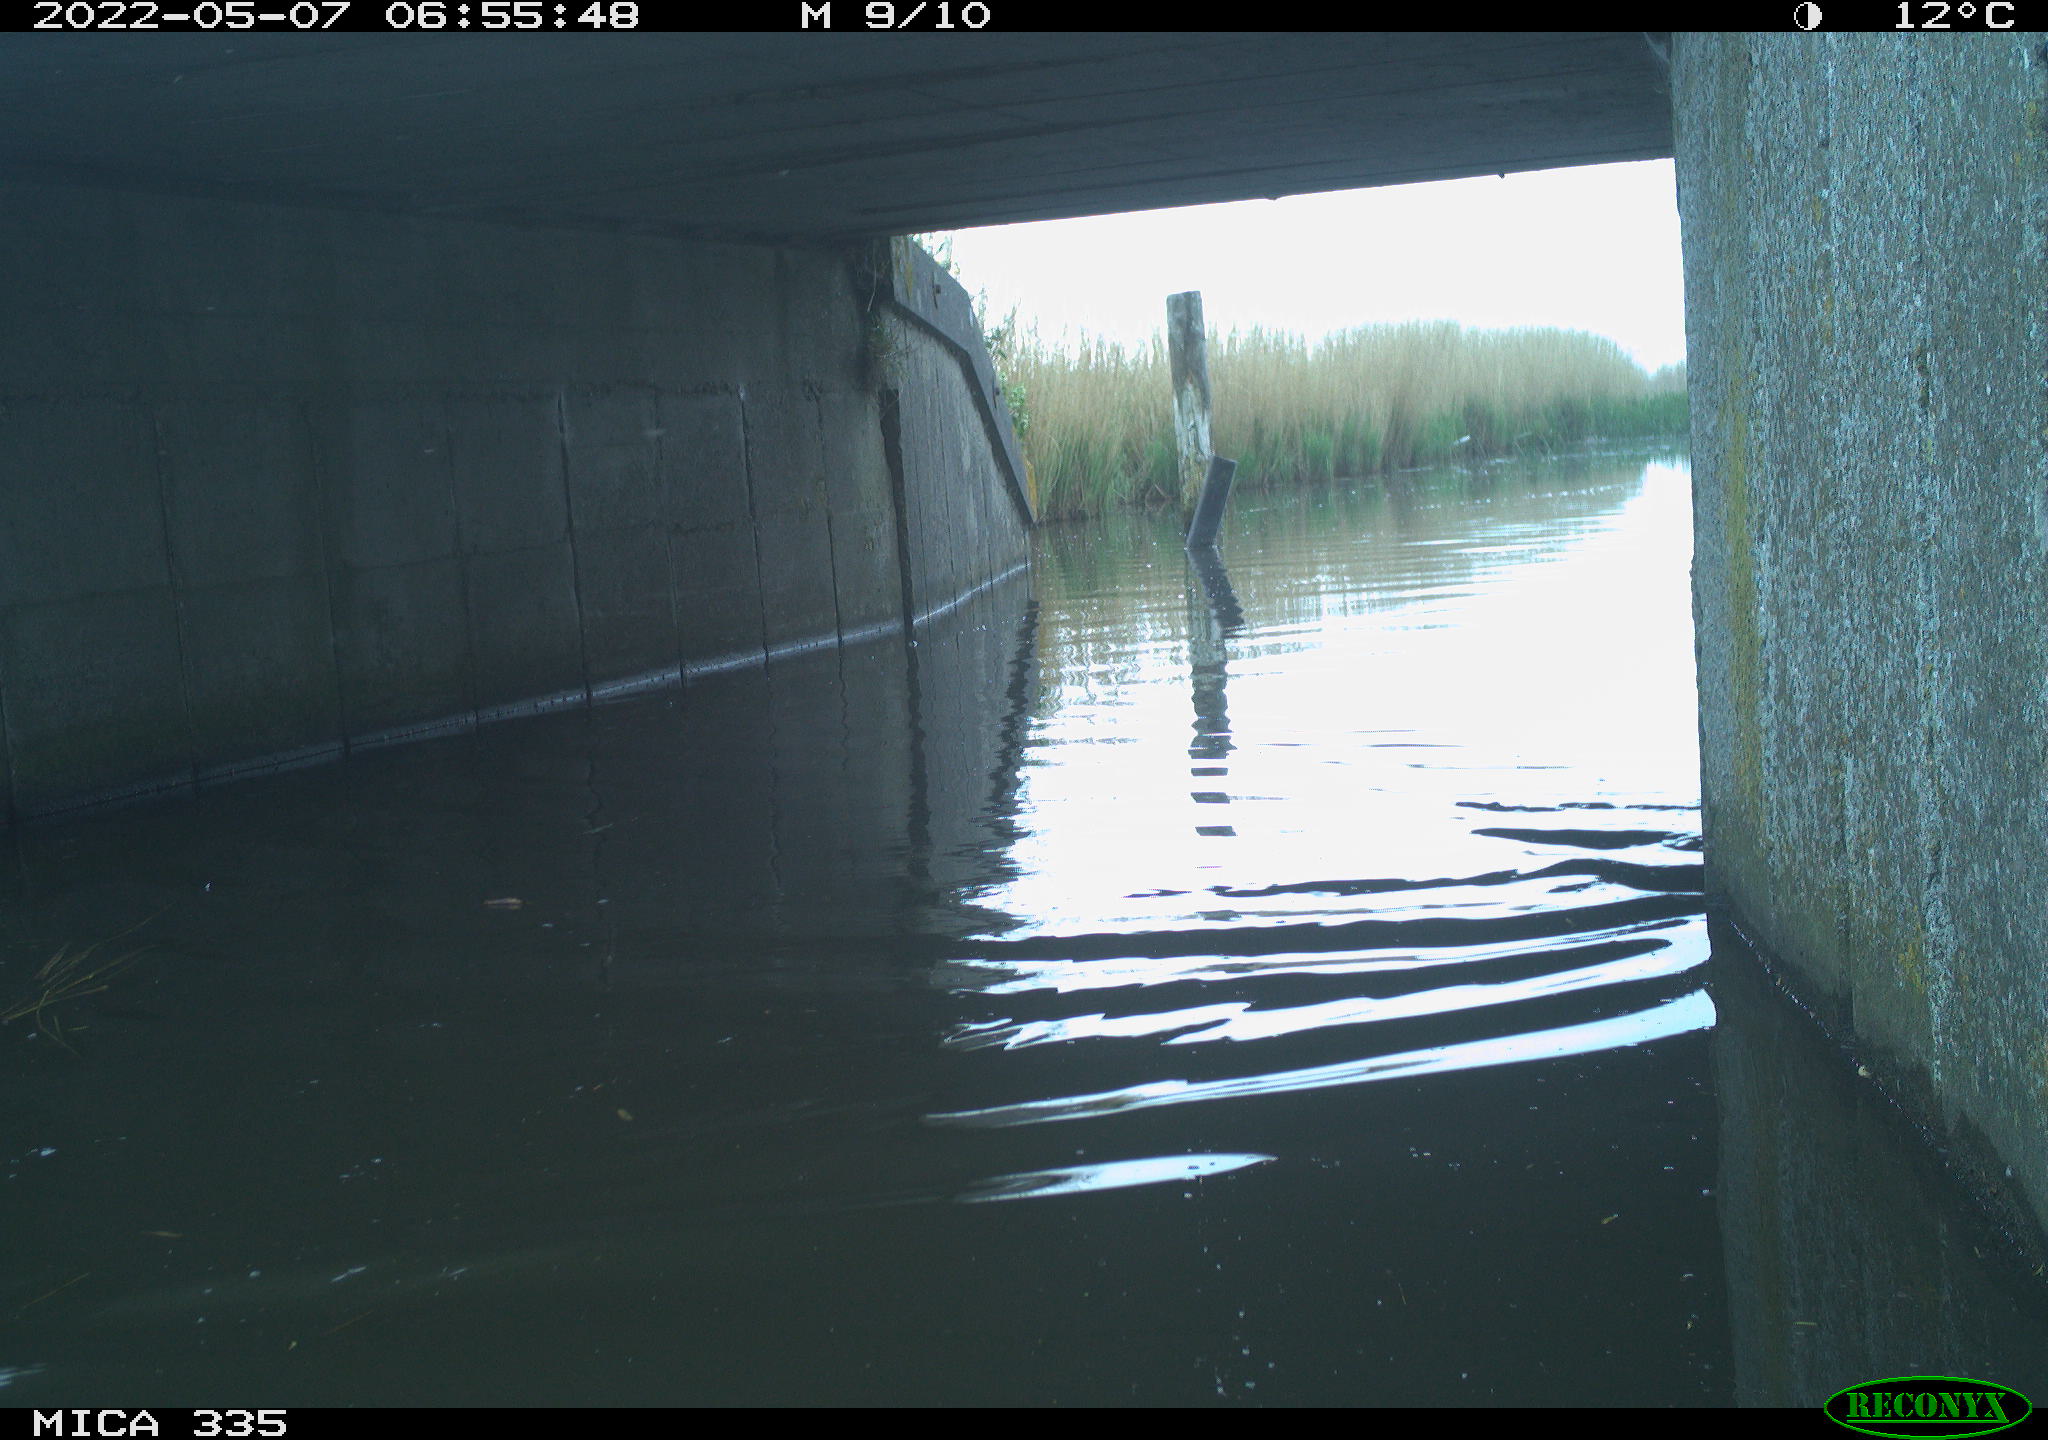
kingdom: Animalia
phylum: Chordata
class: Aves
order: Anseriformes
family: Anatidae
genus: Anas
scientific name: Anas platyrhynchos
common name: Mallard
